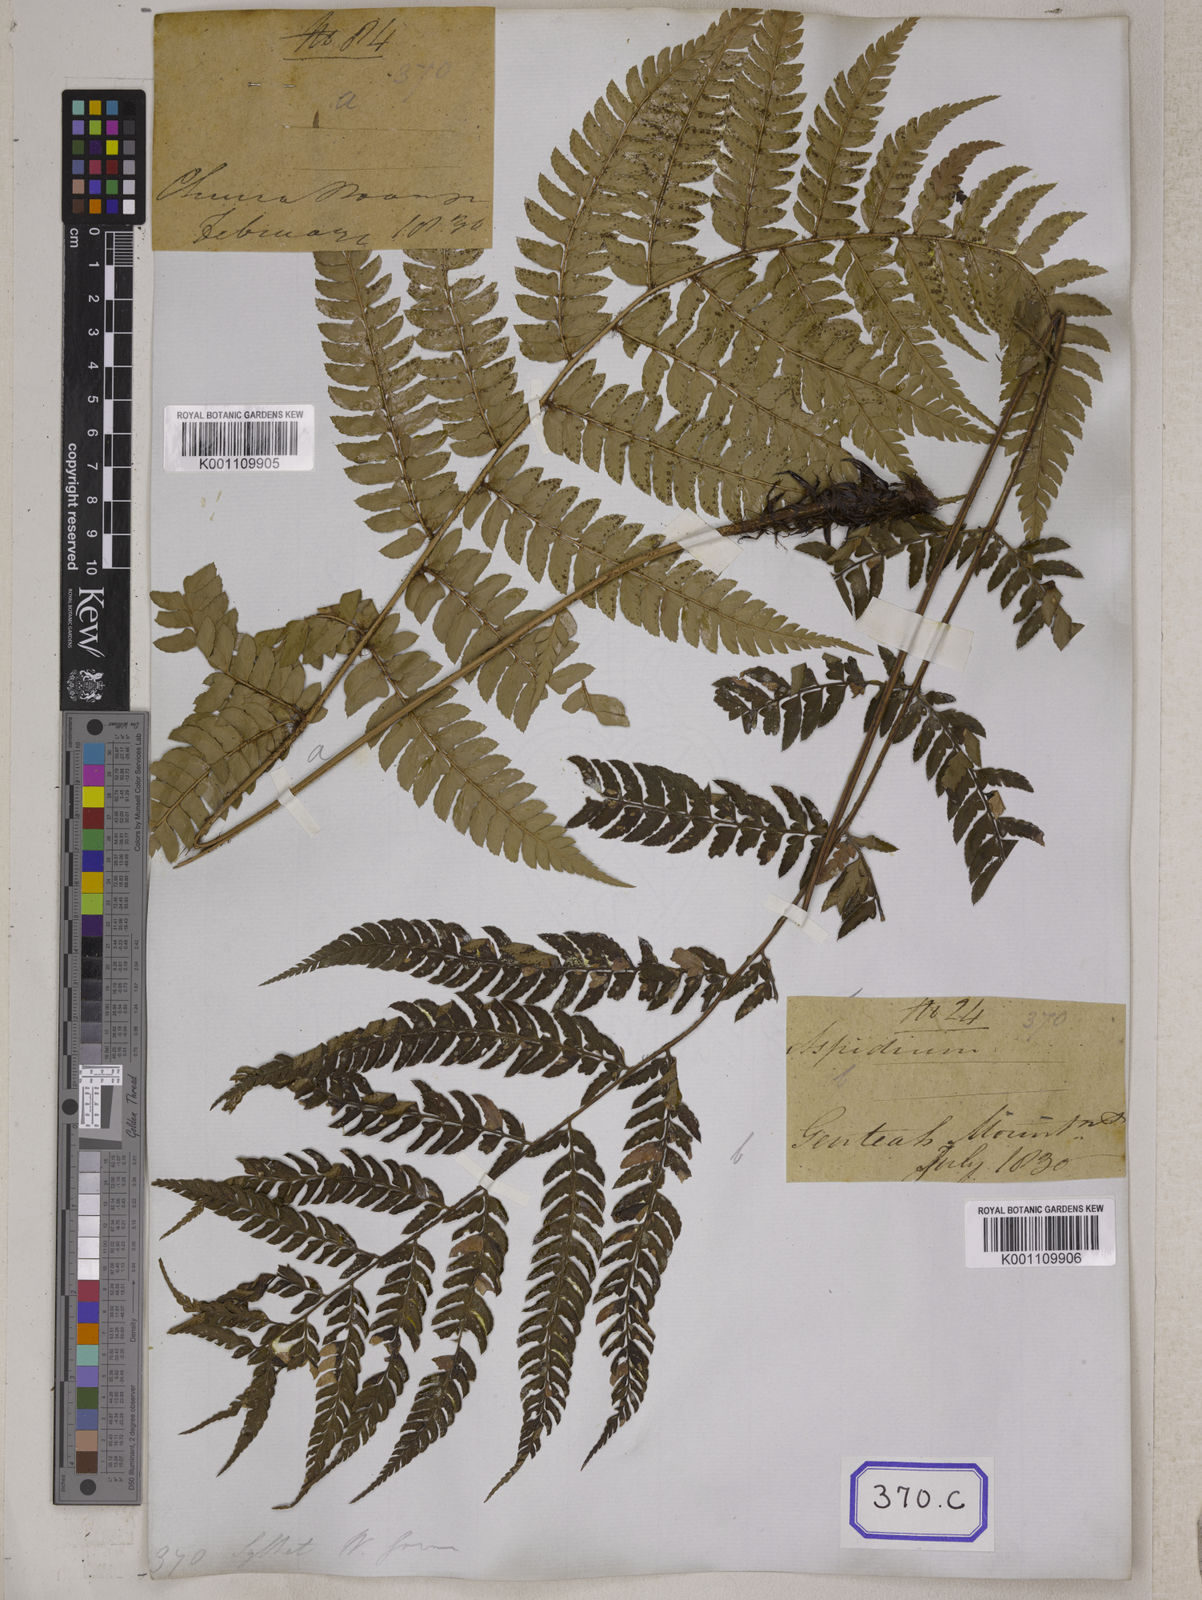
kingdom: Plantae
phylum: Tracheophyta
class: Polypodiopsida
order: Polypodiales
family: Dryopteridaceae
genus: Polystichum
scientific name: Polystichum pseudotsus-simense
